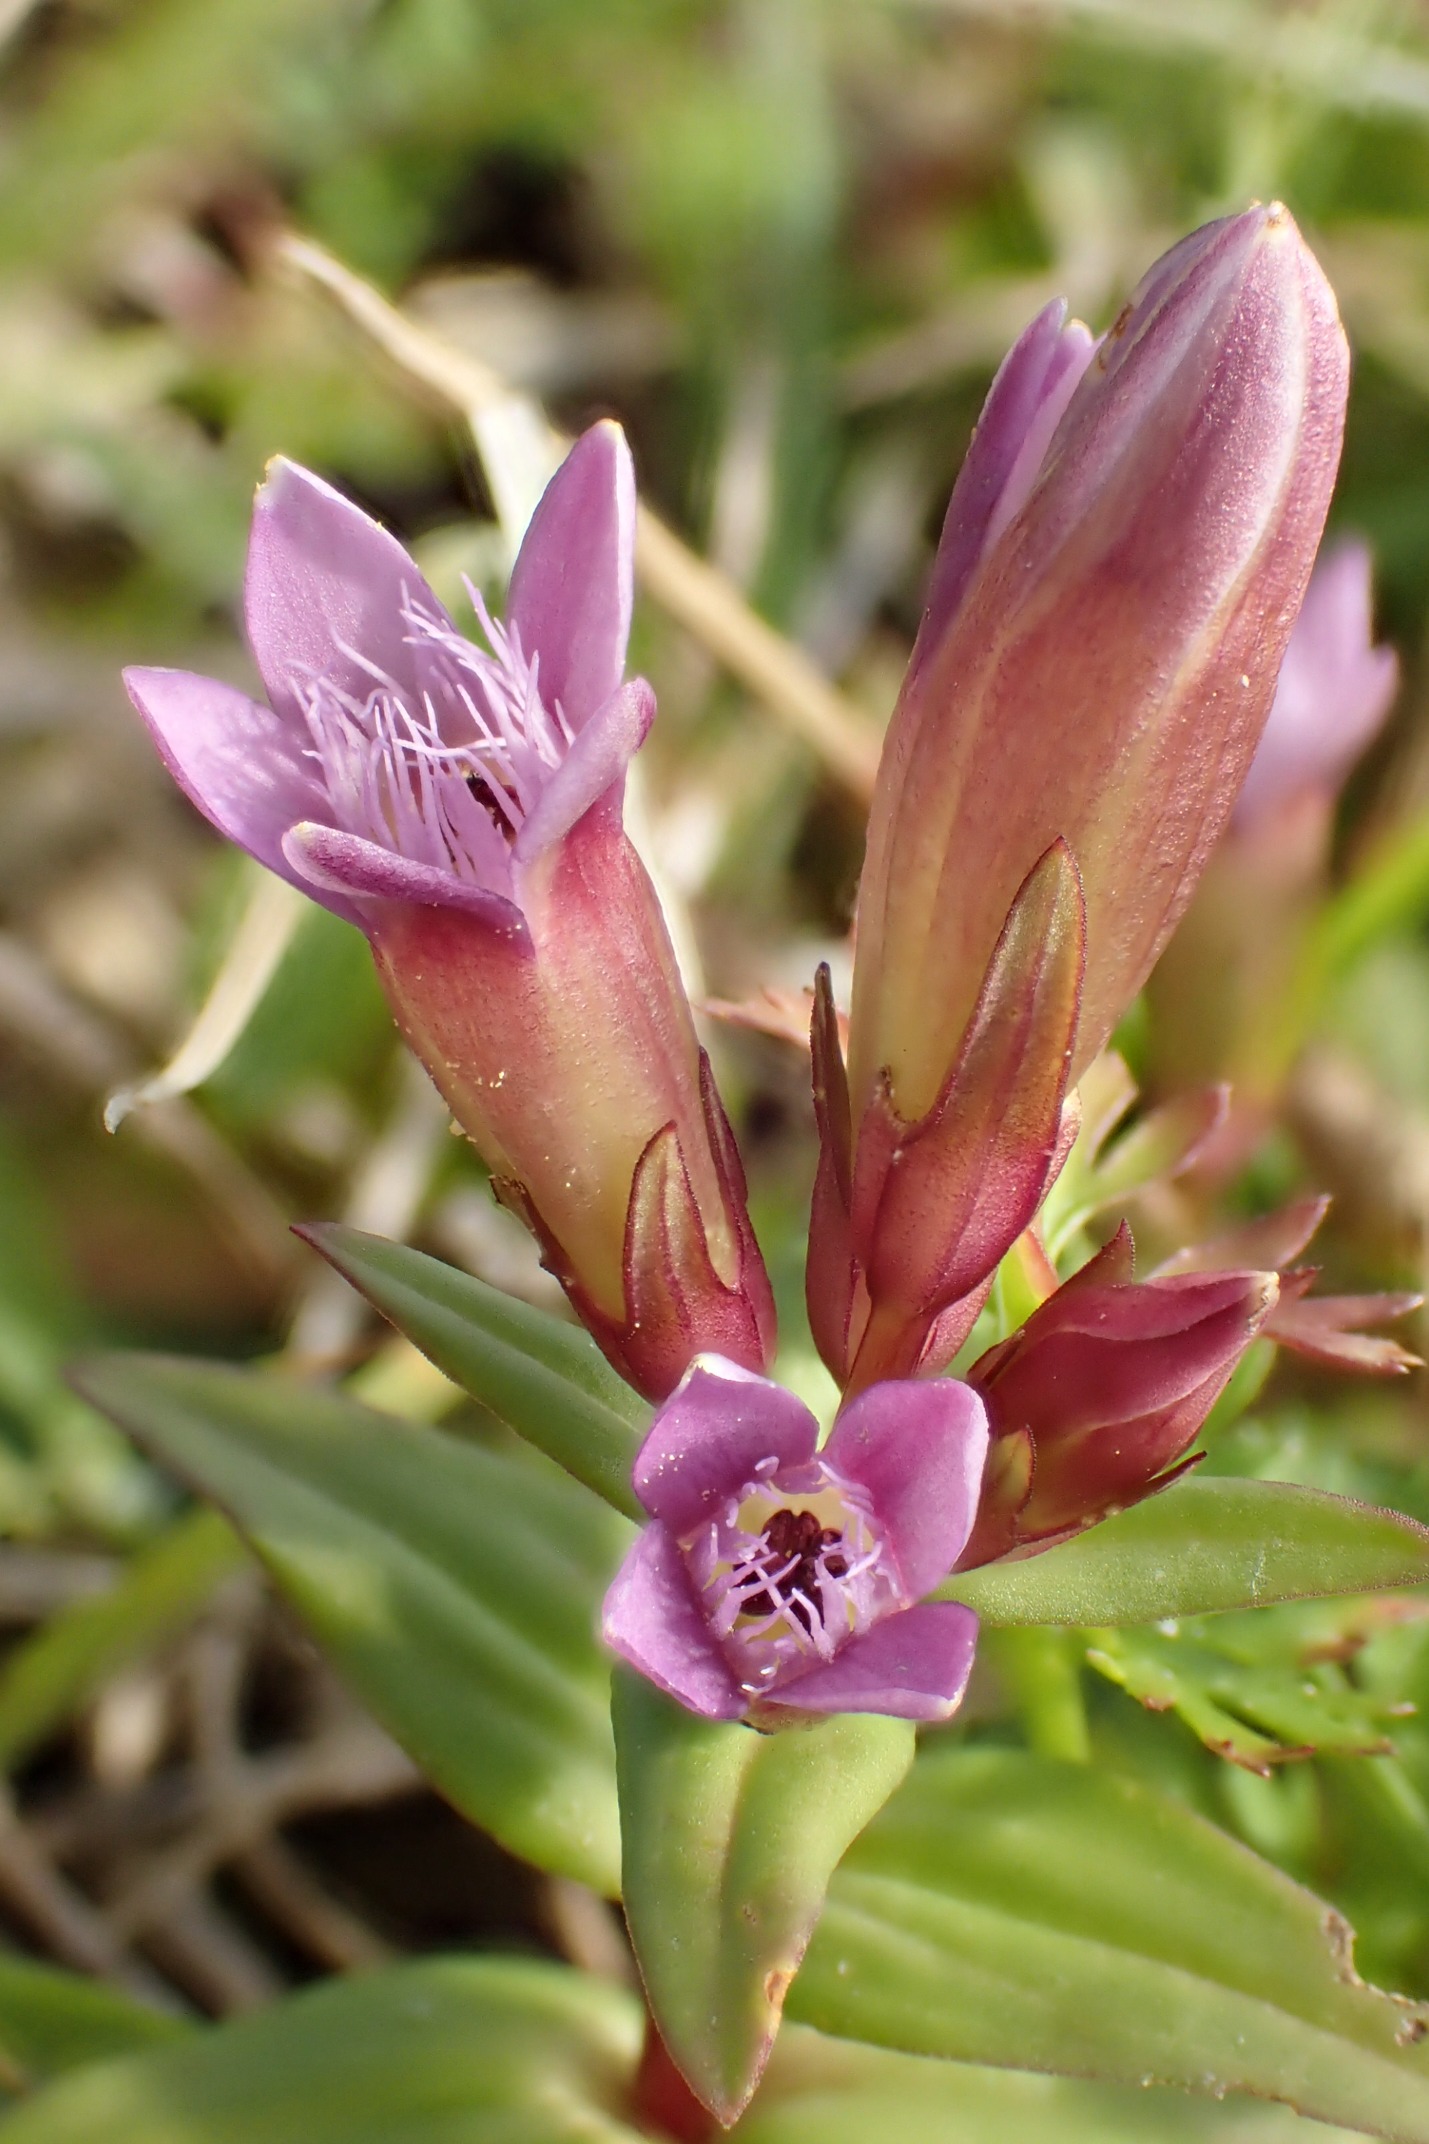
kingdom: Plantae
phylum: Tracheophyta
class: Magnoliopsida
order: Gentianales
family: Gentianaceae
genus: Gentianella
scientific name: Gentianella amarella
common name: Smalbægret ensian
